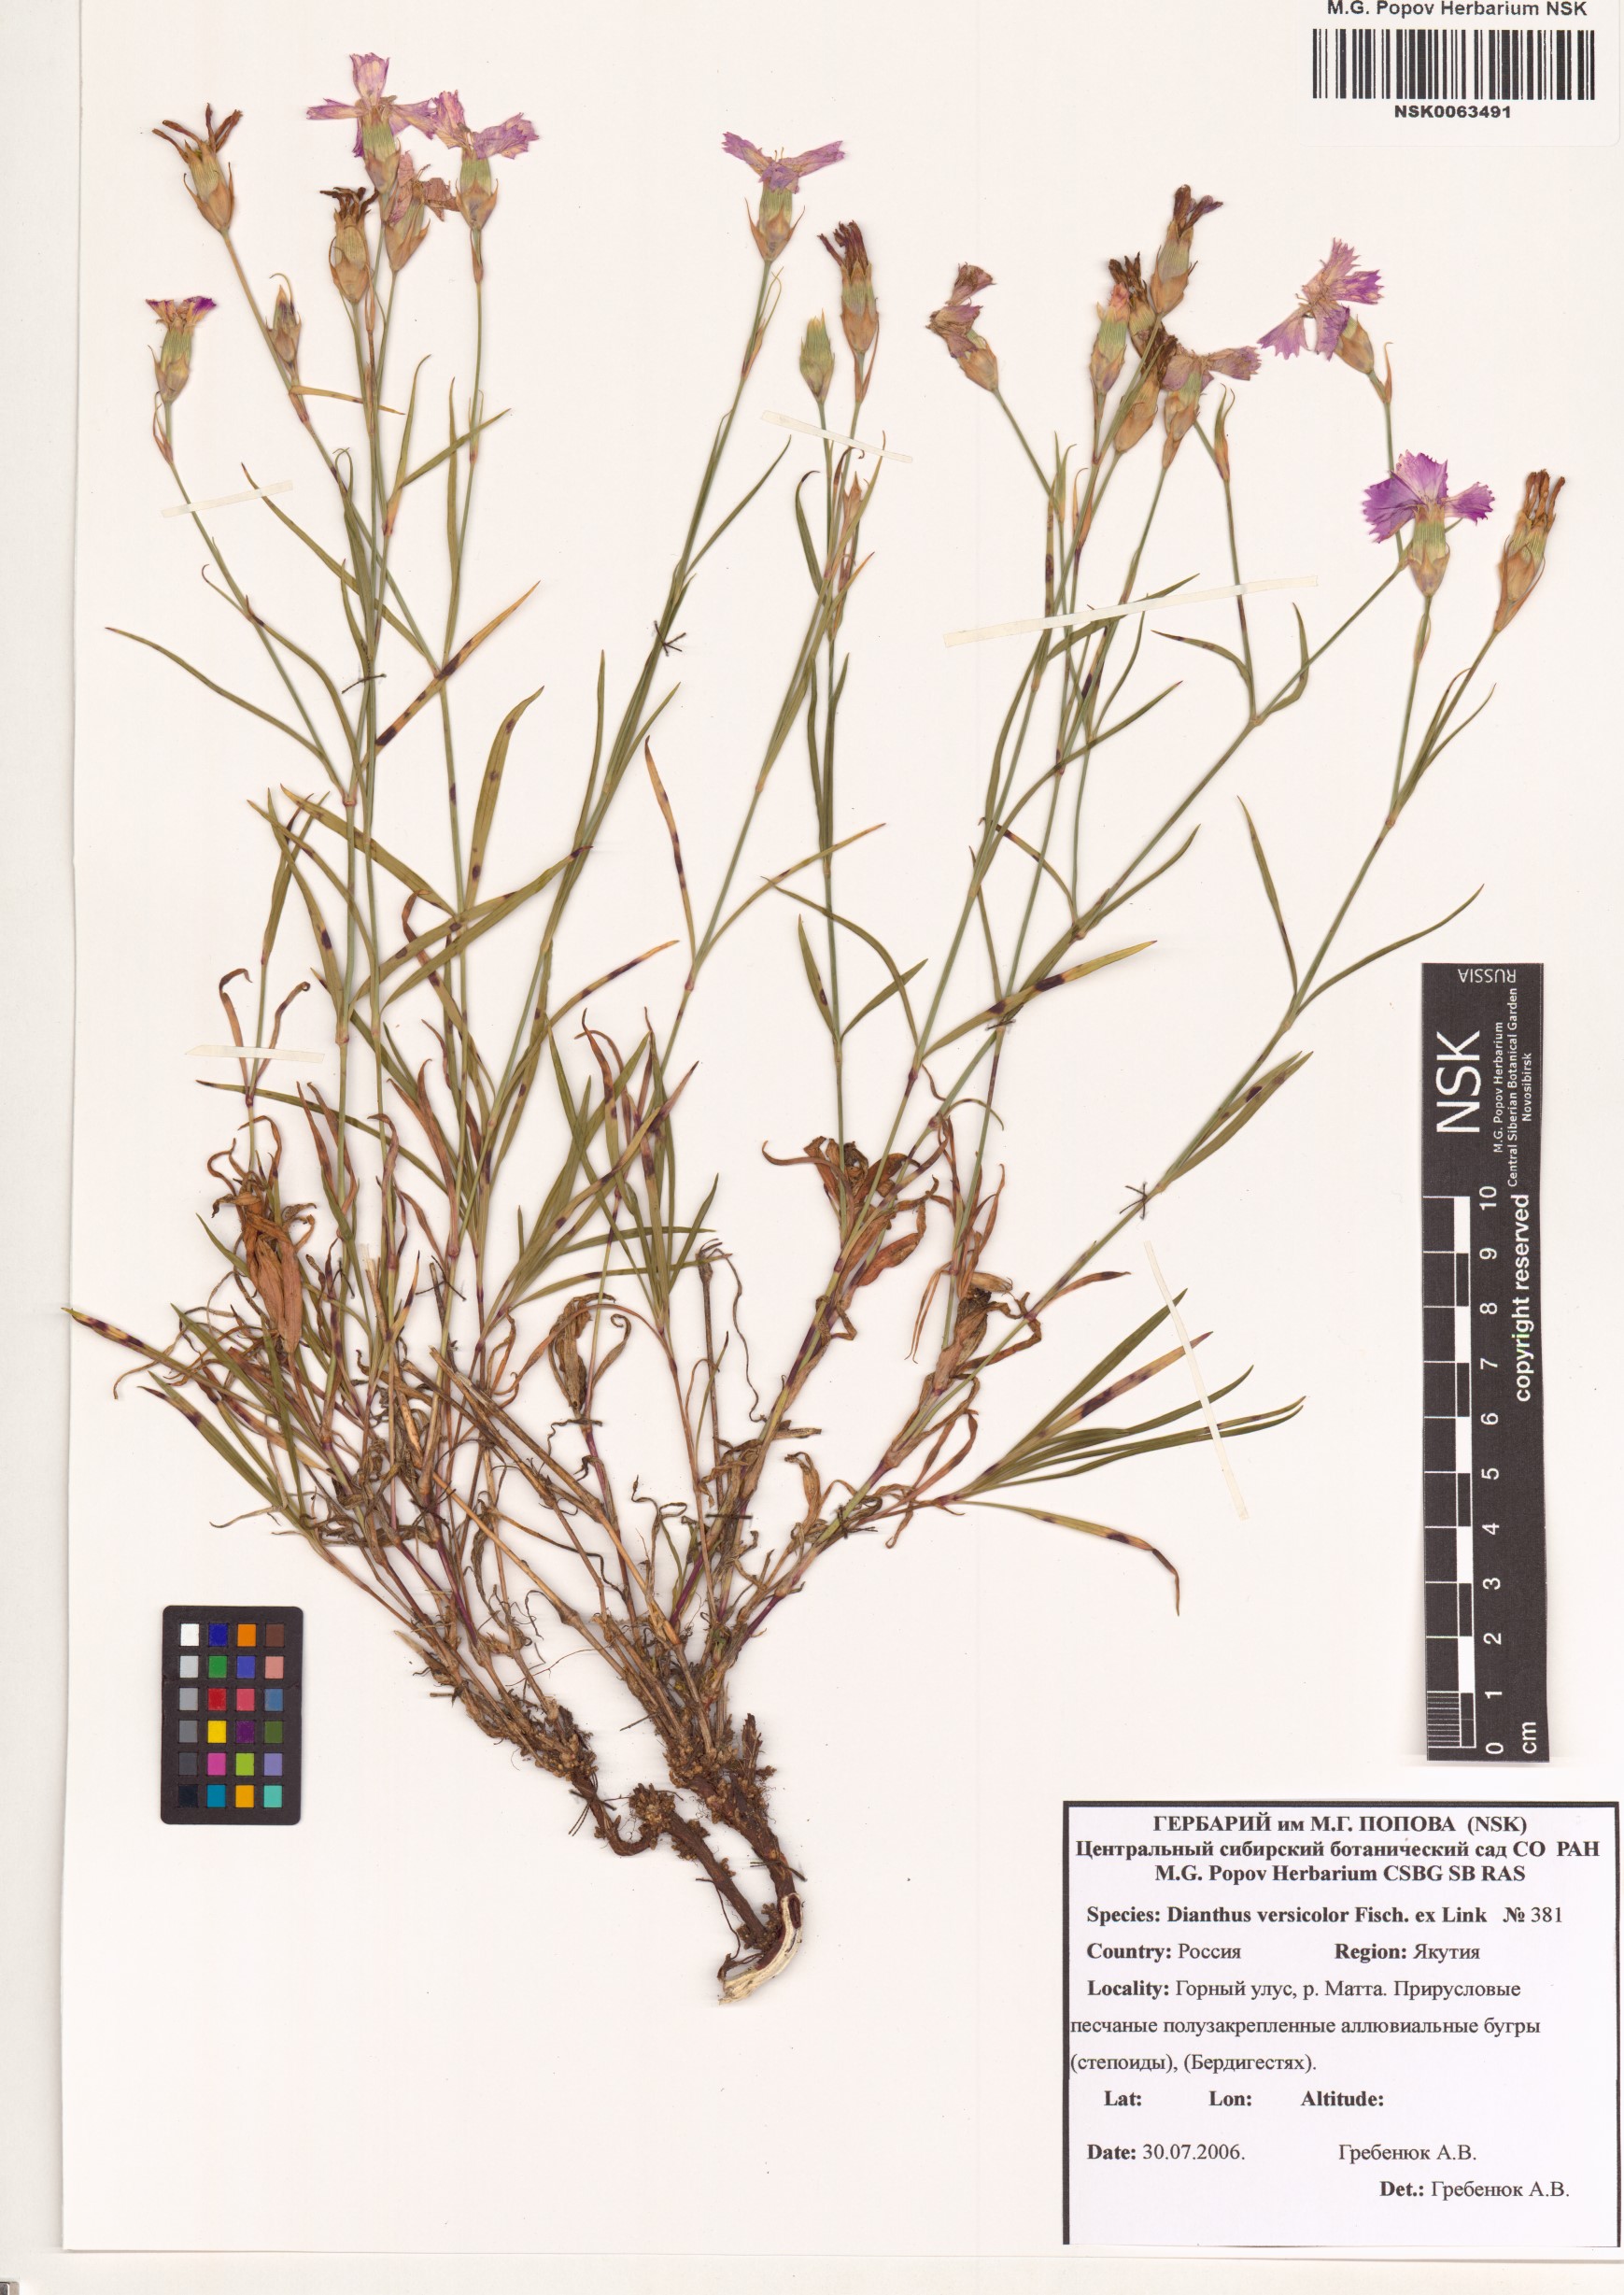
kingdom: Plantae
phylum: Tracheophyta
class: Magnoliopsida
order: Caryophyllales
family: Caryophyllaceae
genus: Dianthus
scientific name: Dianthus chinensis
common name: Rainbow pink
